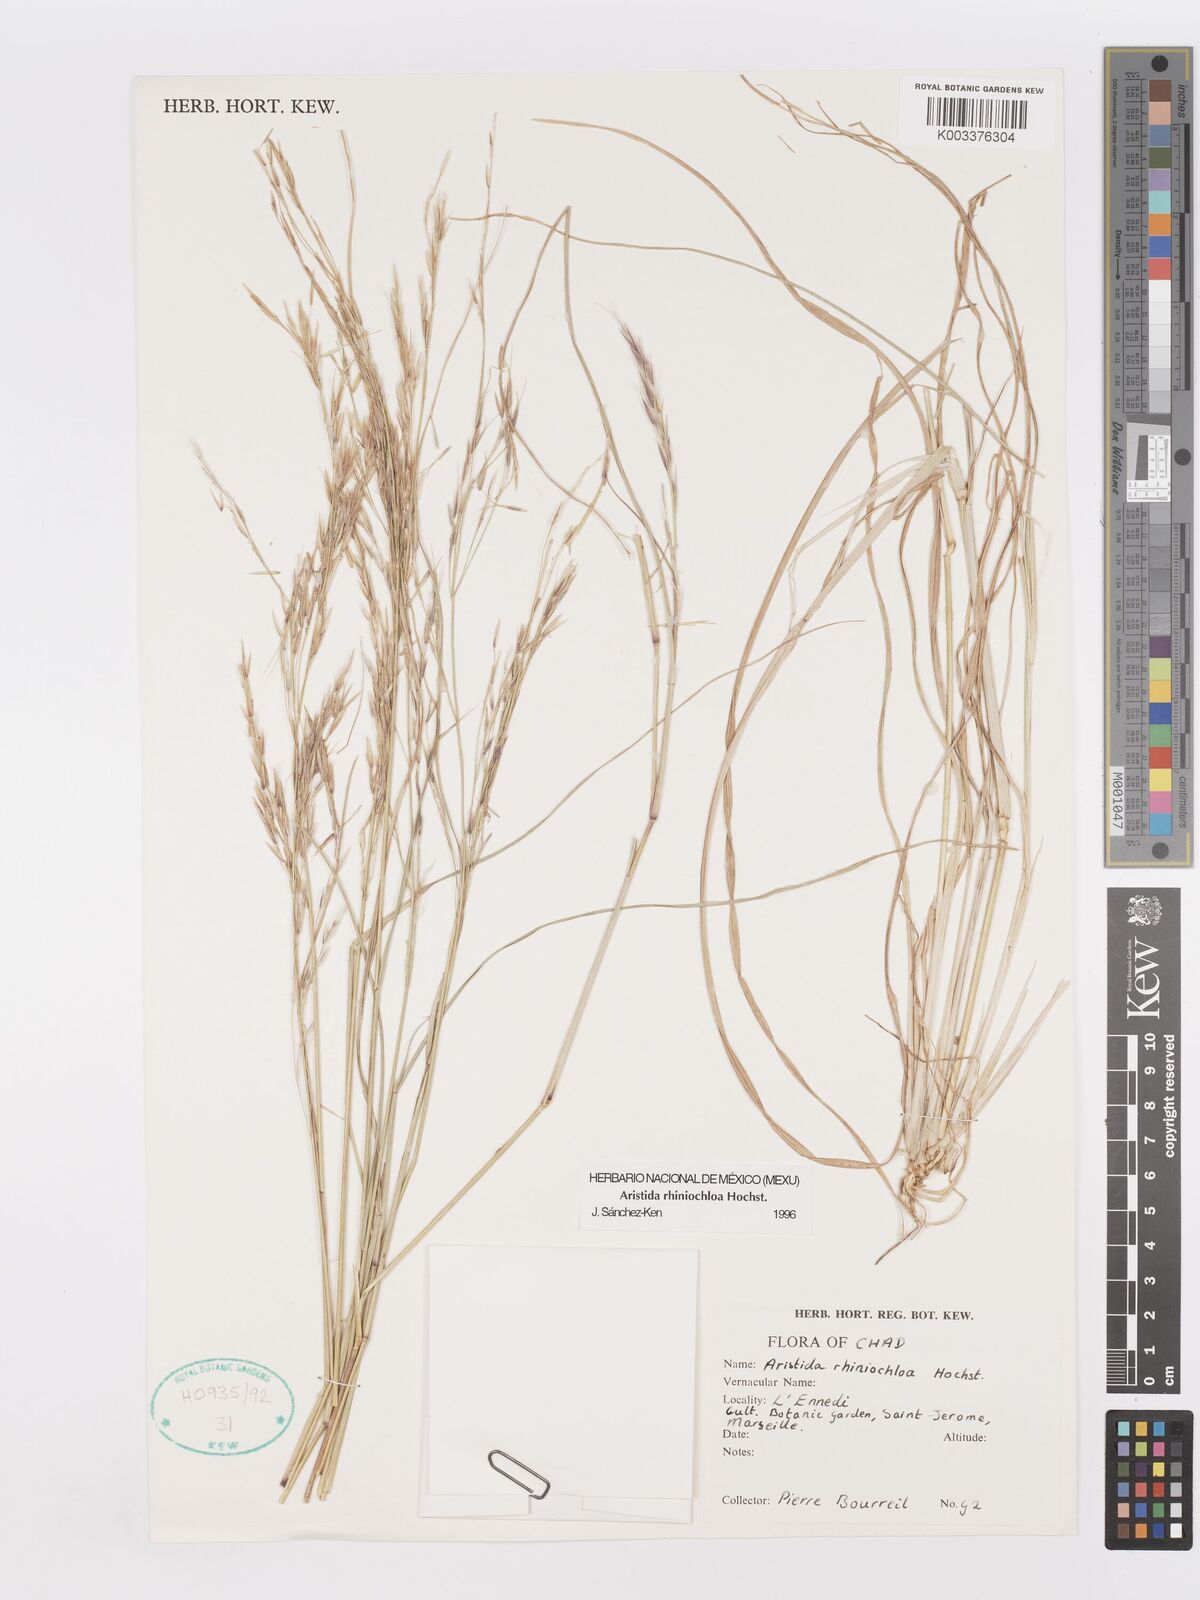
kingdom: Plantae
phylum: Tracheophyta
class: Liliopsida
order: Poales
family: Poaceae
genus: Aristida
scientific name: Aristida rhiniochloa
